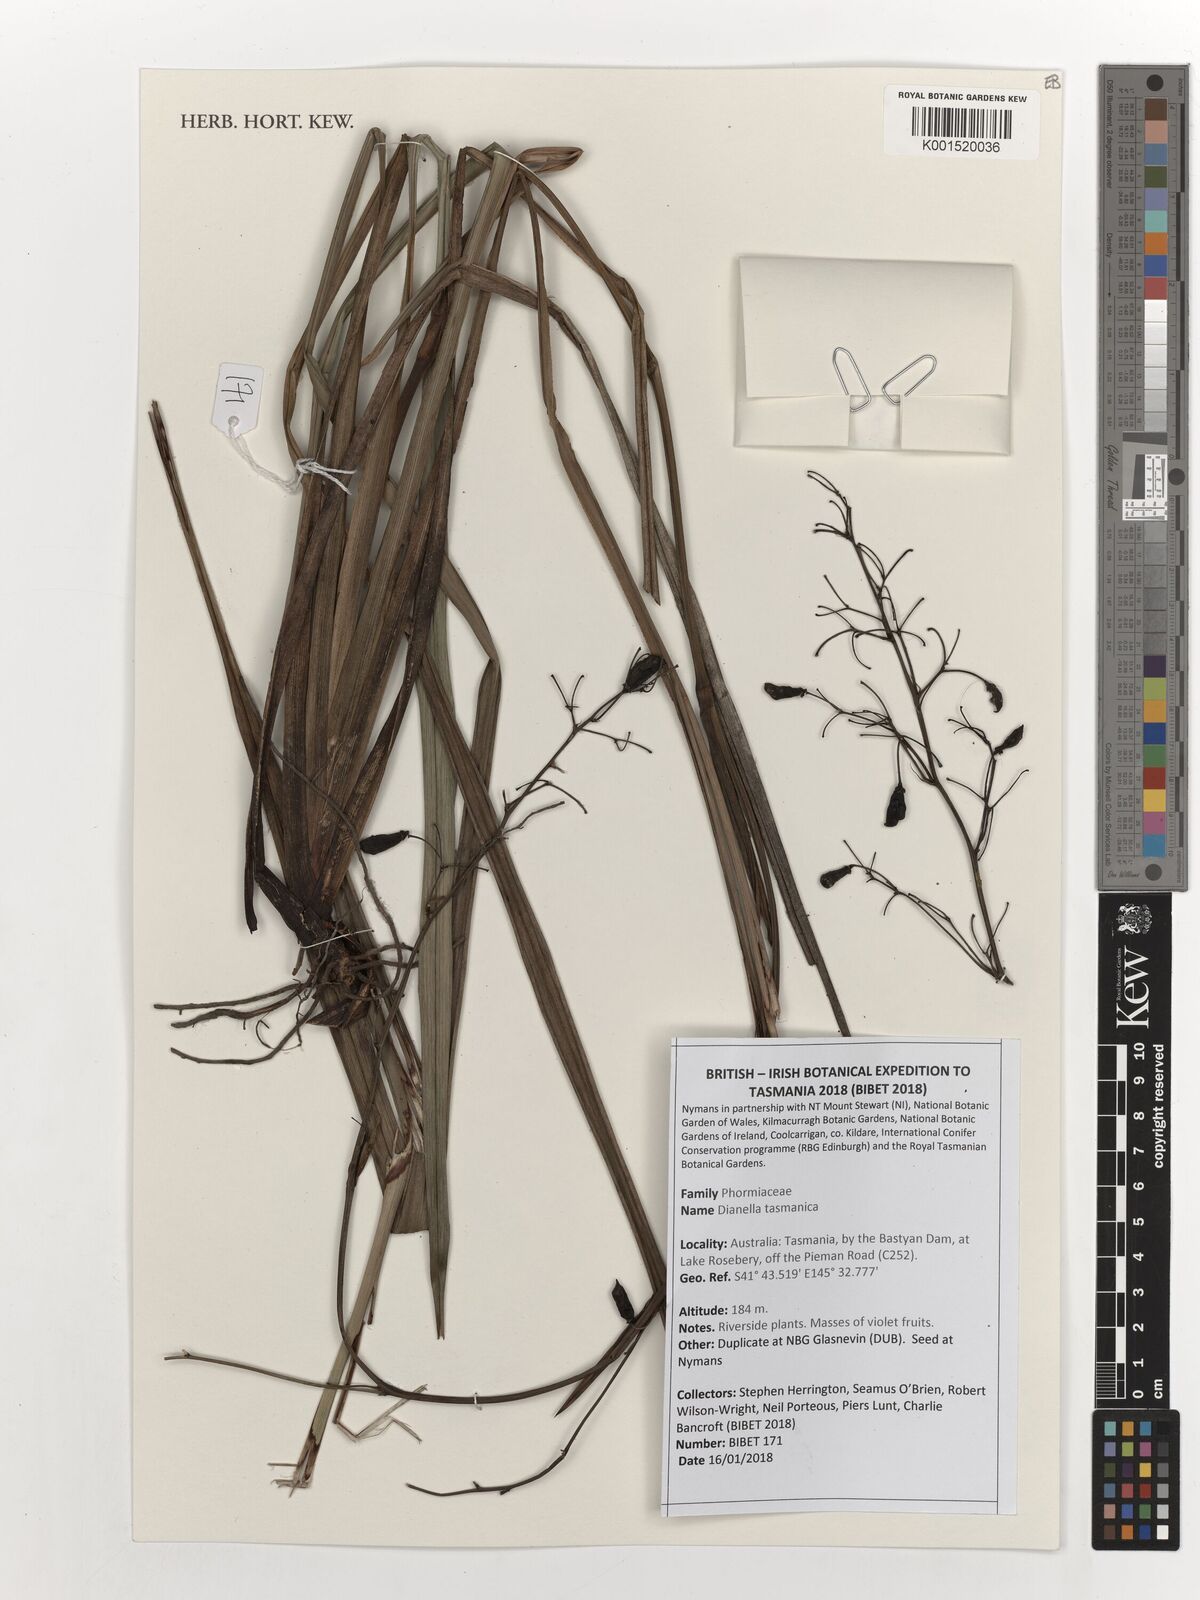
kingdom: Plantae
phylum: Tracheophyta
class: Liliopsida
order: Asparagales
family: Asphodelaceae
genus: Dianella
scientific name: Dianella tasmanica
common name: Tasman flax-lily
